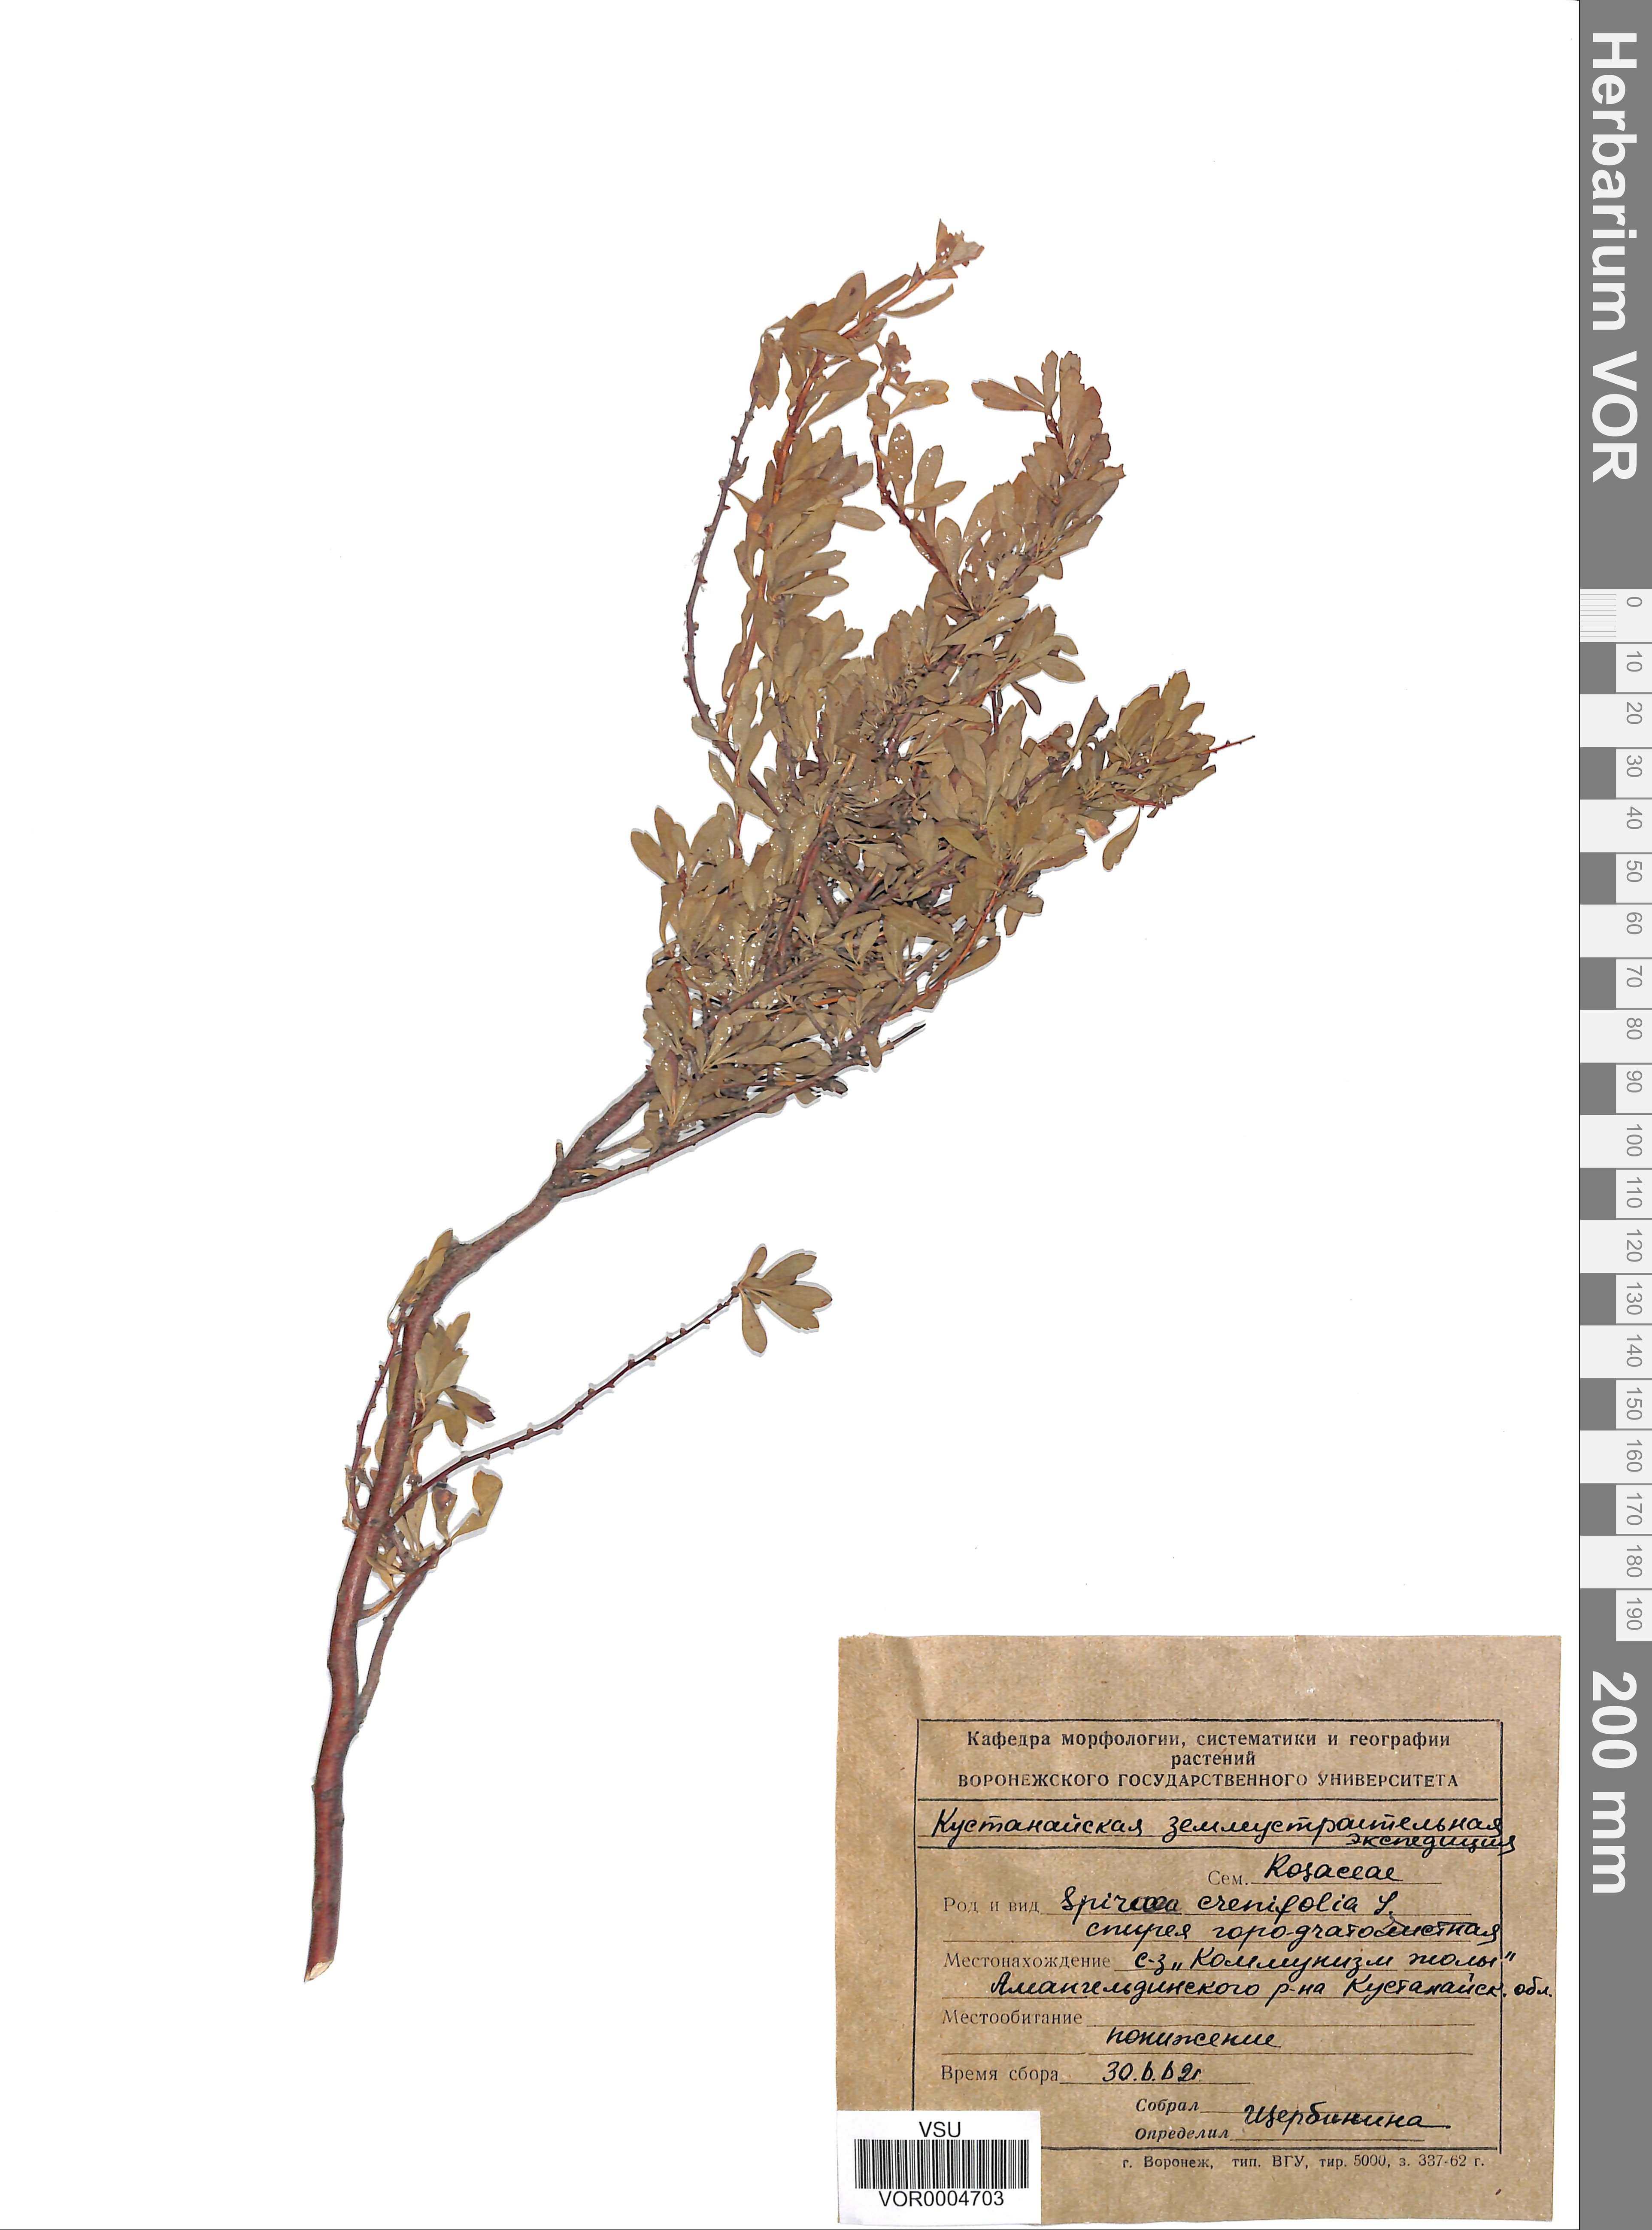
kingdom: Plantae
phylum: Tracheophyta
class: Magnoliopsida
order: Rosales
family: Rosaceae
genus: Spiraea
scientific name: Spiraea crenata
